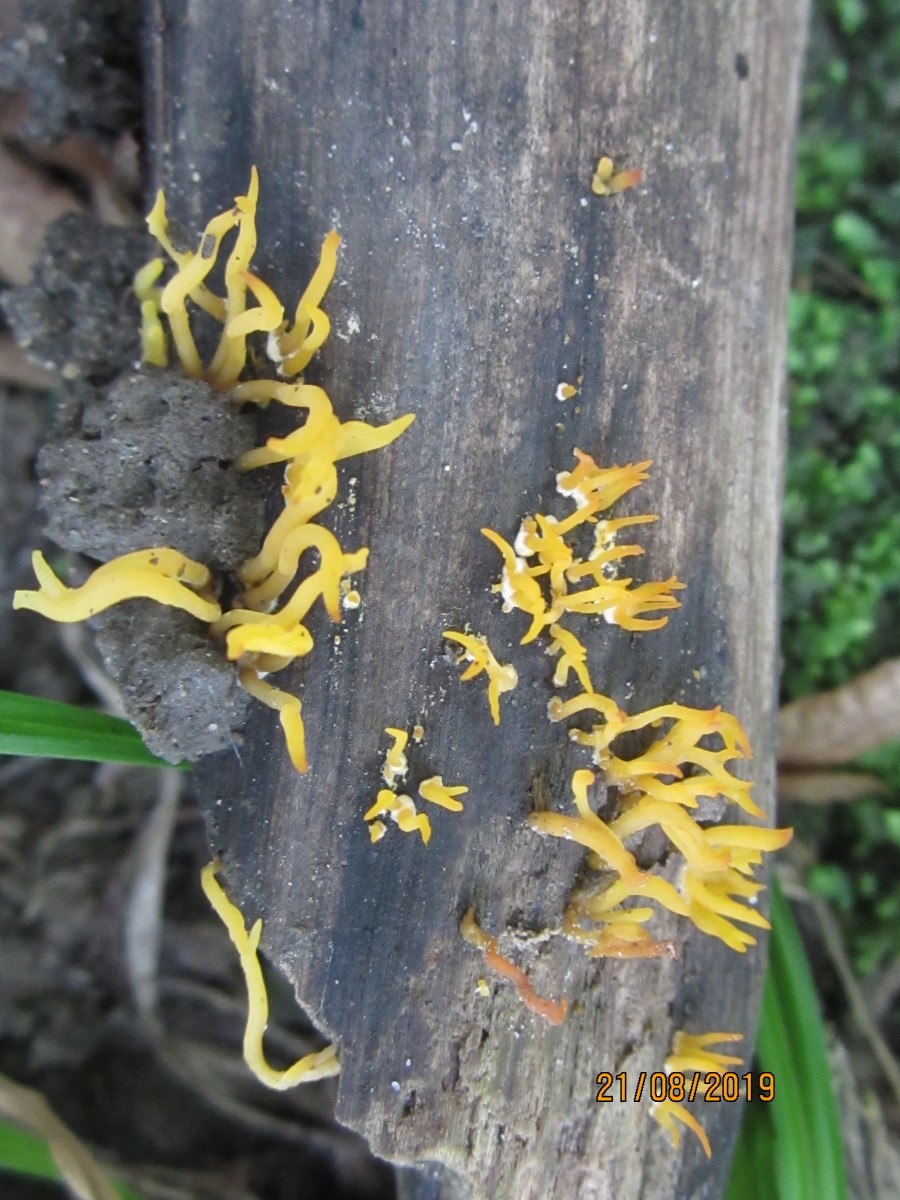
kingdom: Fungi
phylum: Basidiomycota
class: Dacrymycetes
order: Dacrymycetales
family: Dacrymycetaceae
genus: Calocera
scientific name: Calocera cornea
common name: liden guldgaffel
